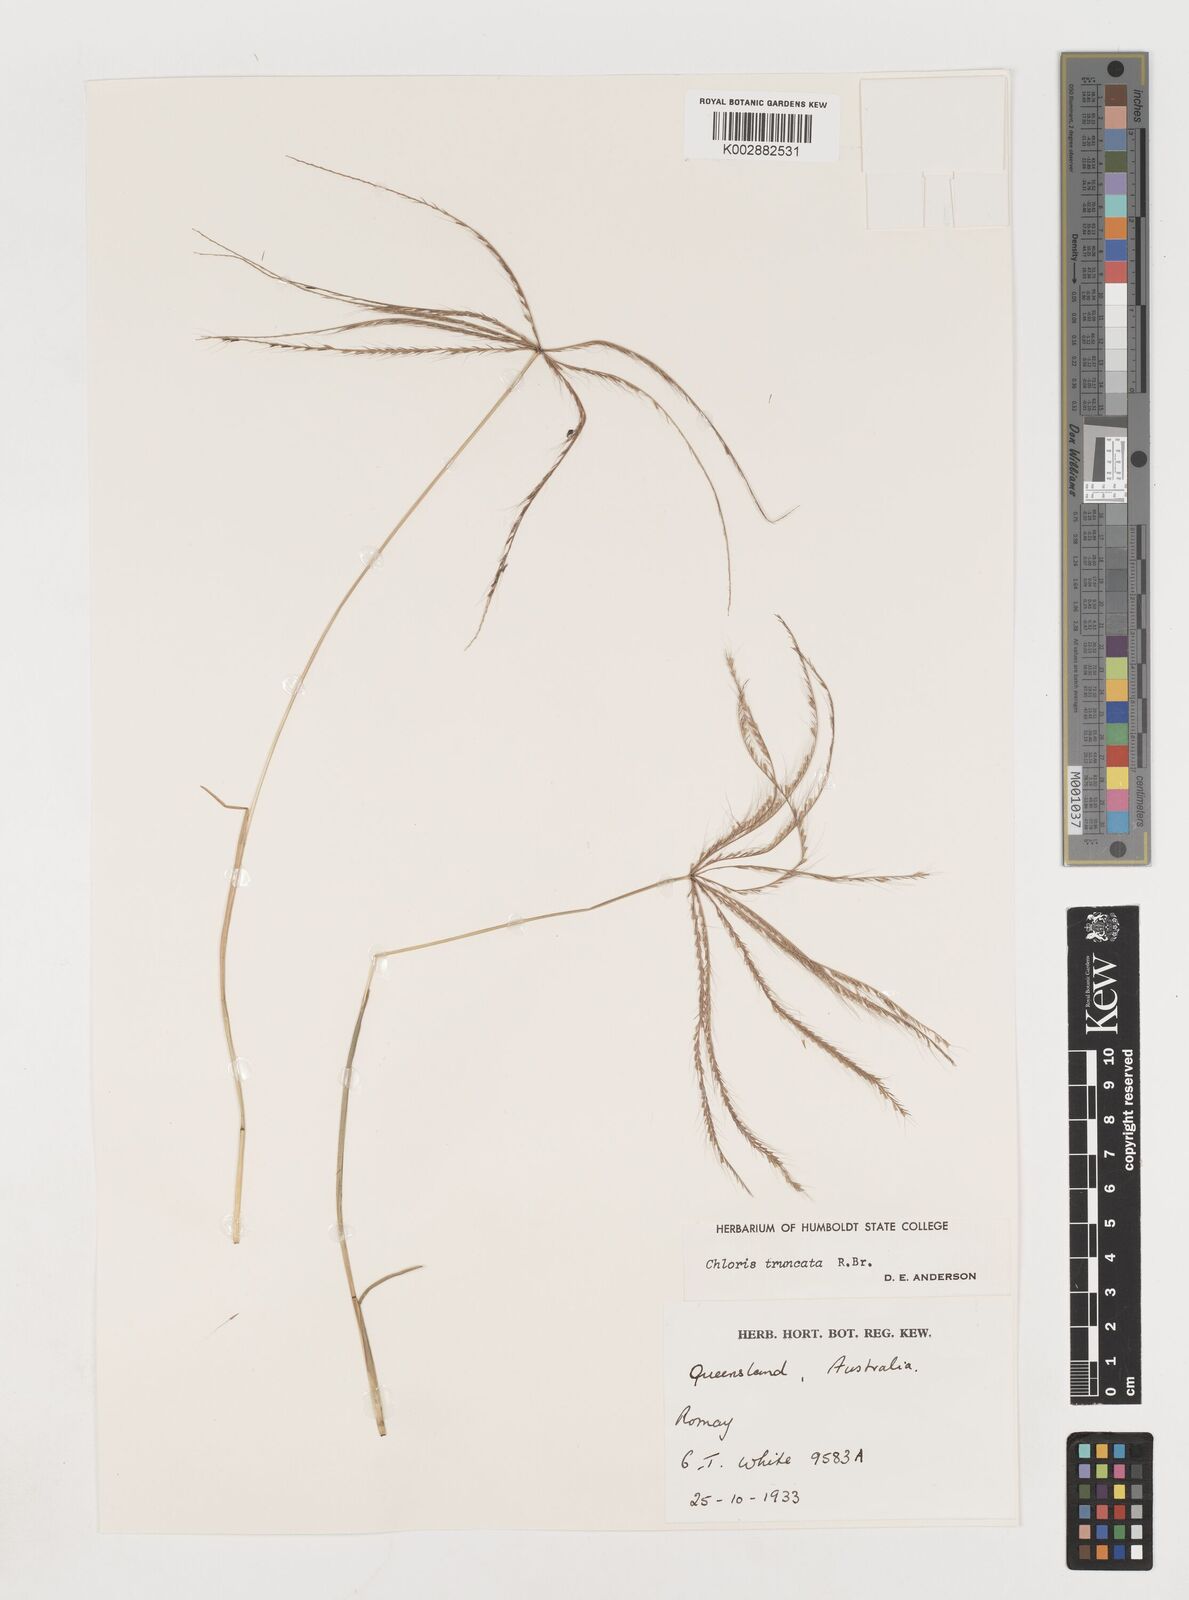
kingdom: Plantae
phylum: Tracheophyta
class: Liliopsida
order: Poales
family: Poaceae
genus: Chloris
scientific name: Chloris truncata
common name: Windmill-grass
